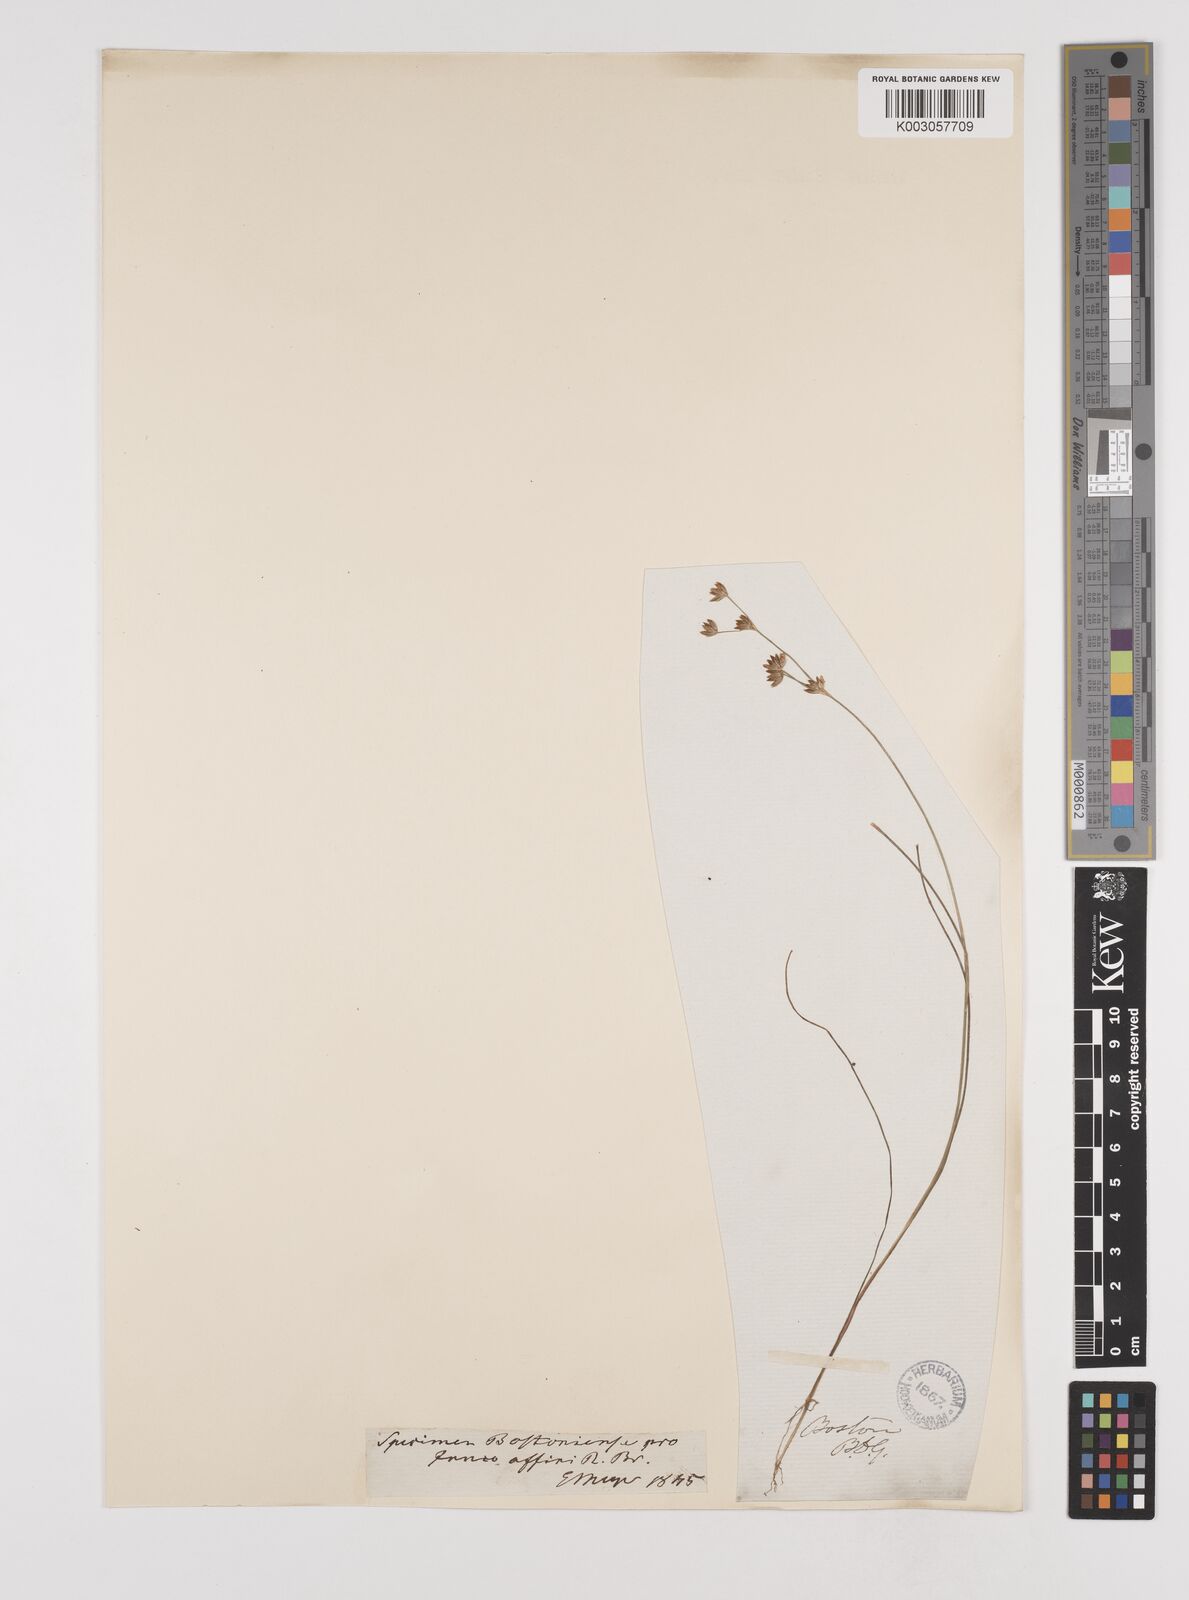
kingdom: Plantae
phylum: Tracheophyta
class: Liliopsida
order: Poales
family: Juncaceae
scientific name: Juncaceae
